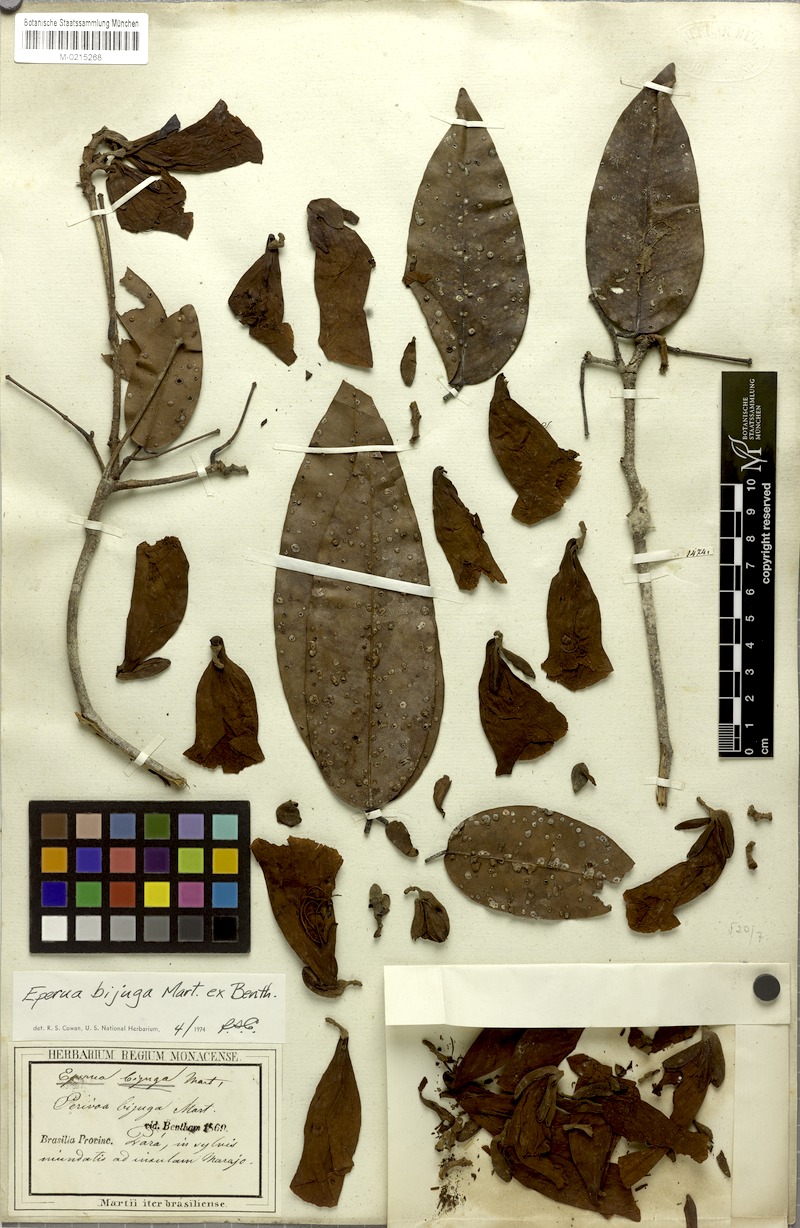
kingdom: Plantae
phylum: Tracheophyta
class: Magnoliopsida
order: Fabales
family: Fabaceae
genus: Eperua
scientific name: Eperua bijuga
